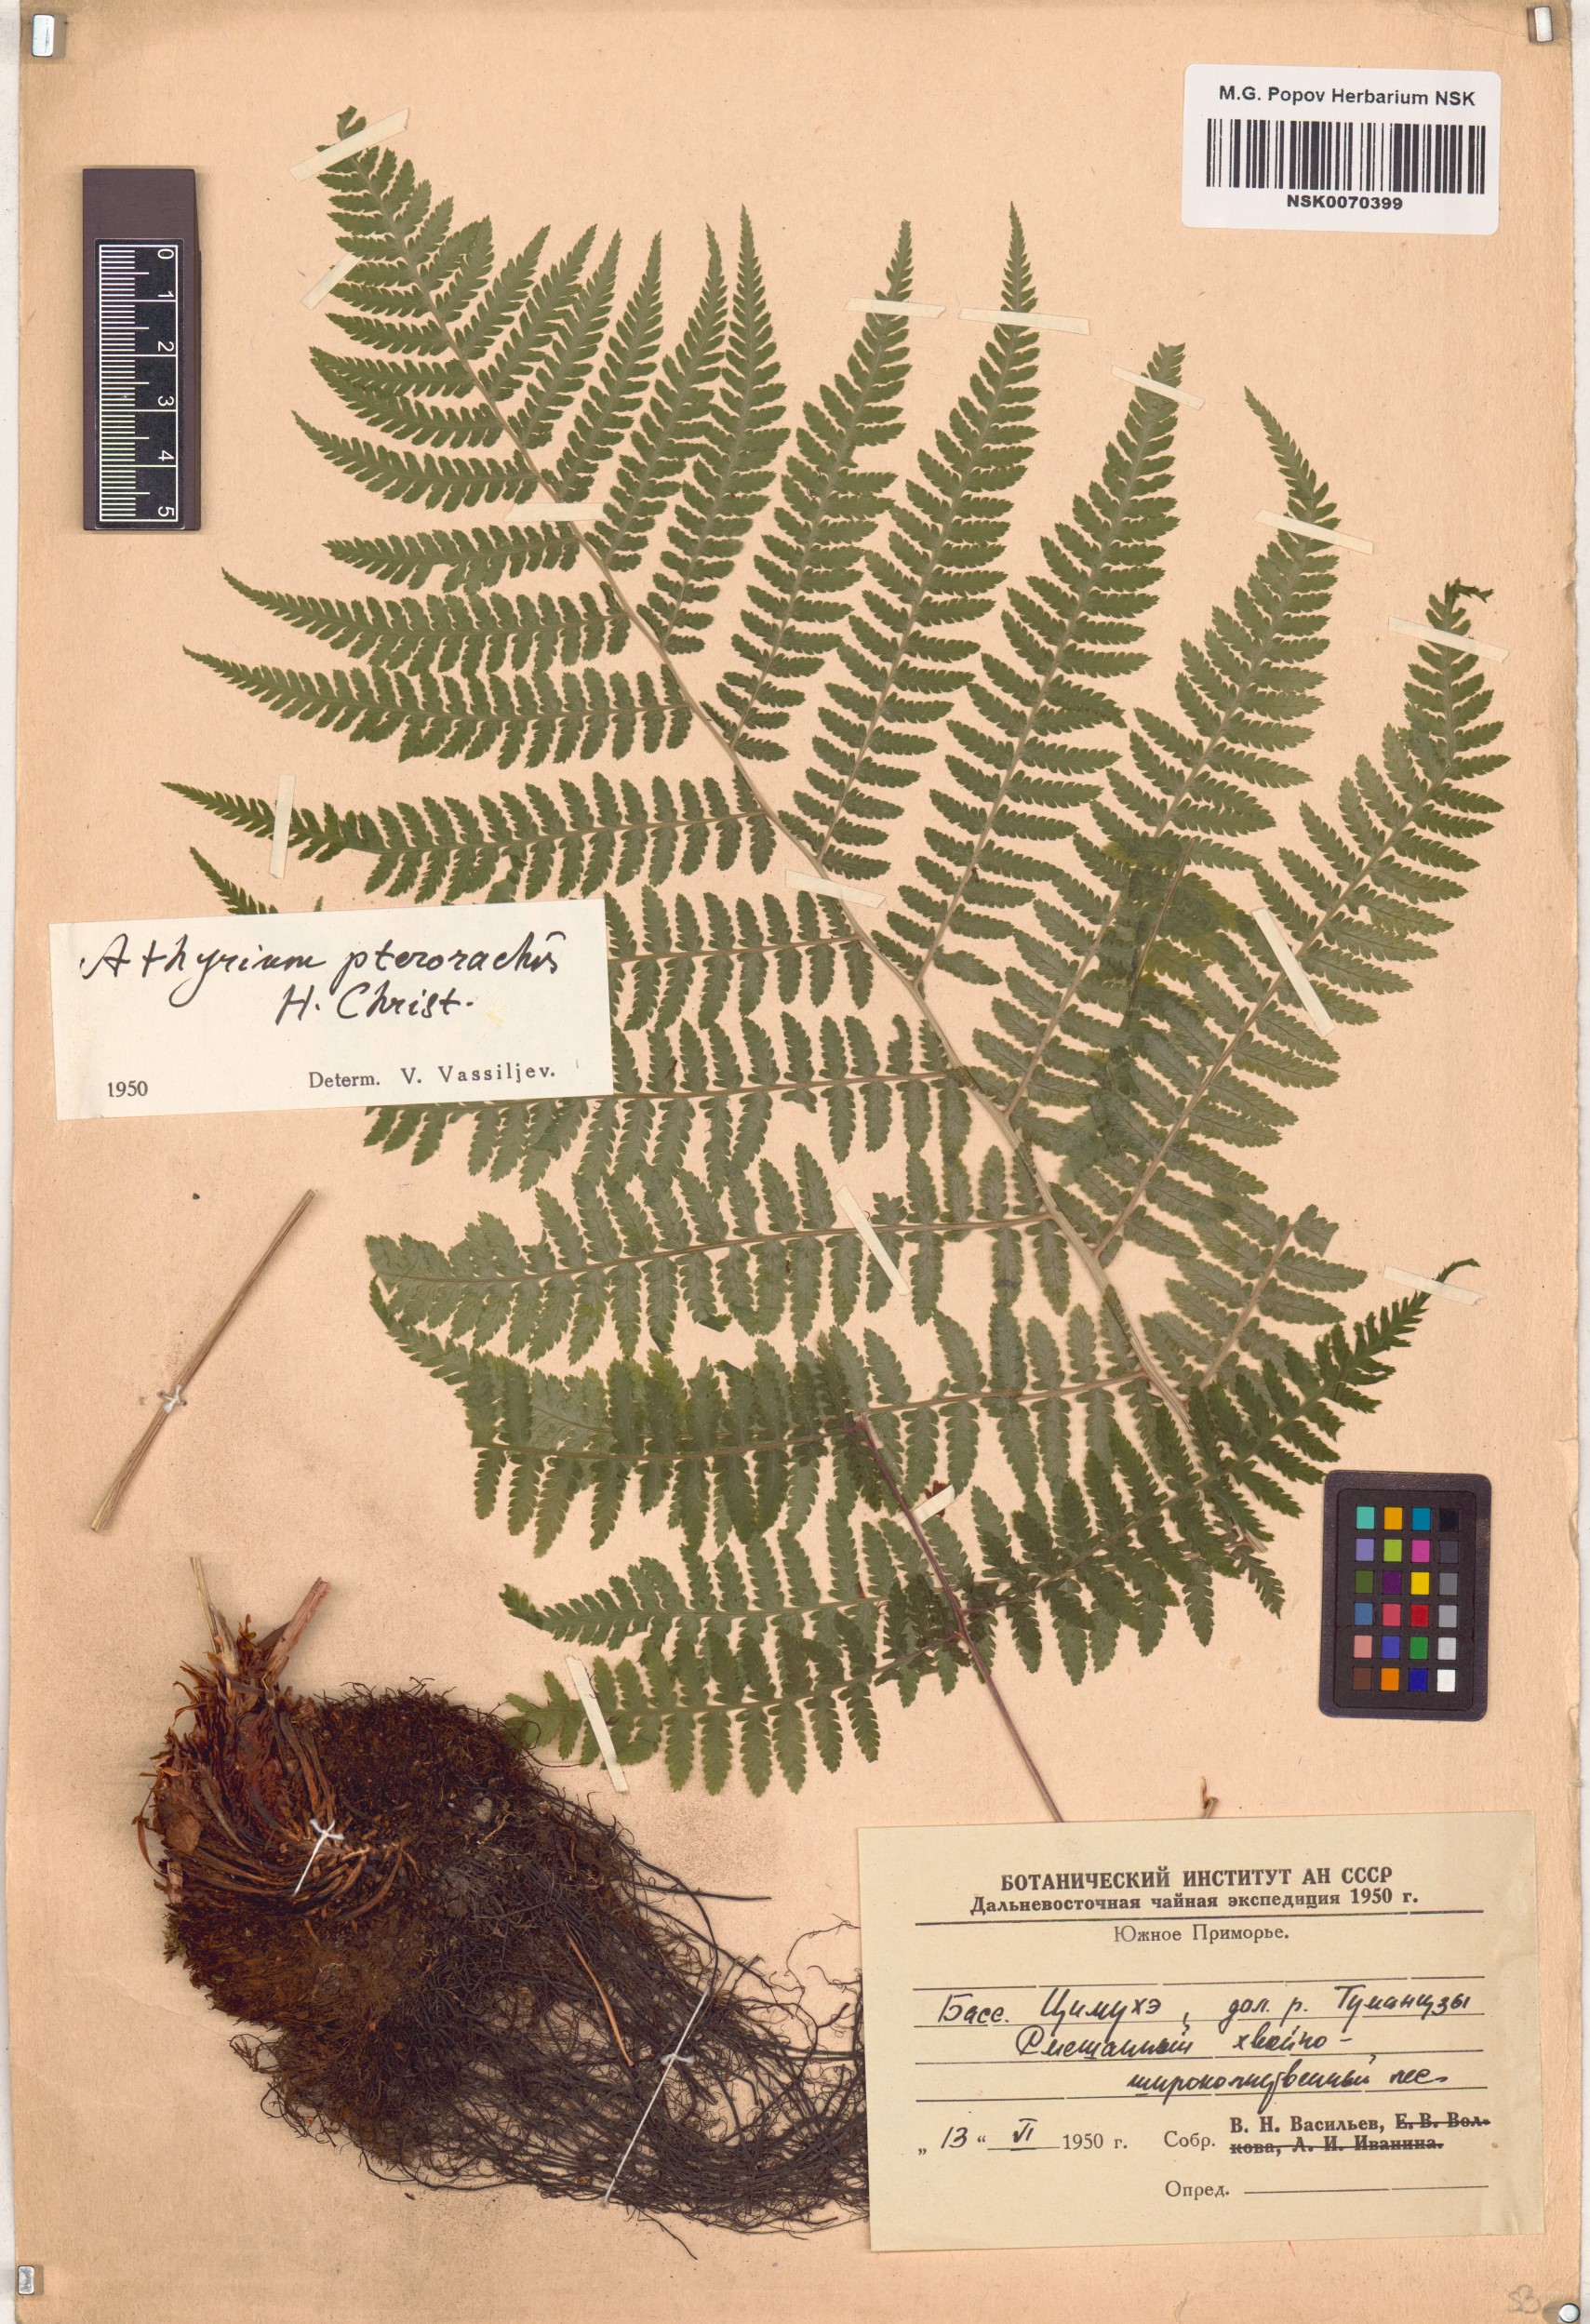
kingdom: Plantae
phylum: Tracheophyta
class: Polypodiopsida
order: Polypodiales
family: Athyriaceae
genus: Deparia
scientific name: Deparia pterorachis
